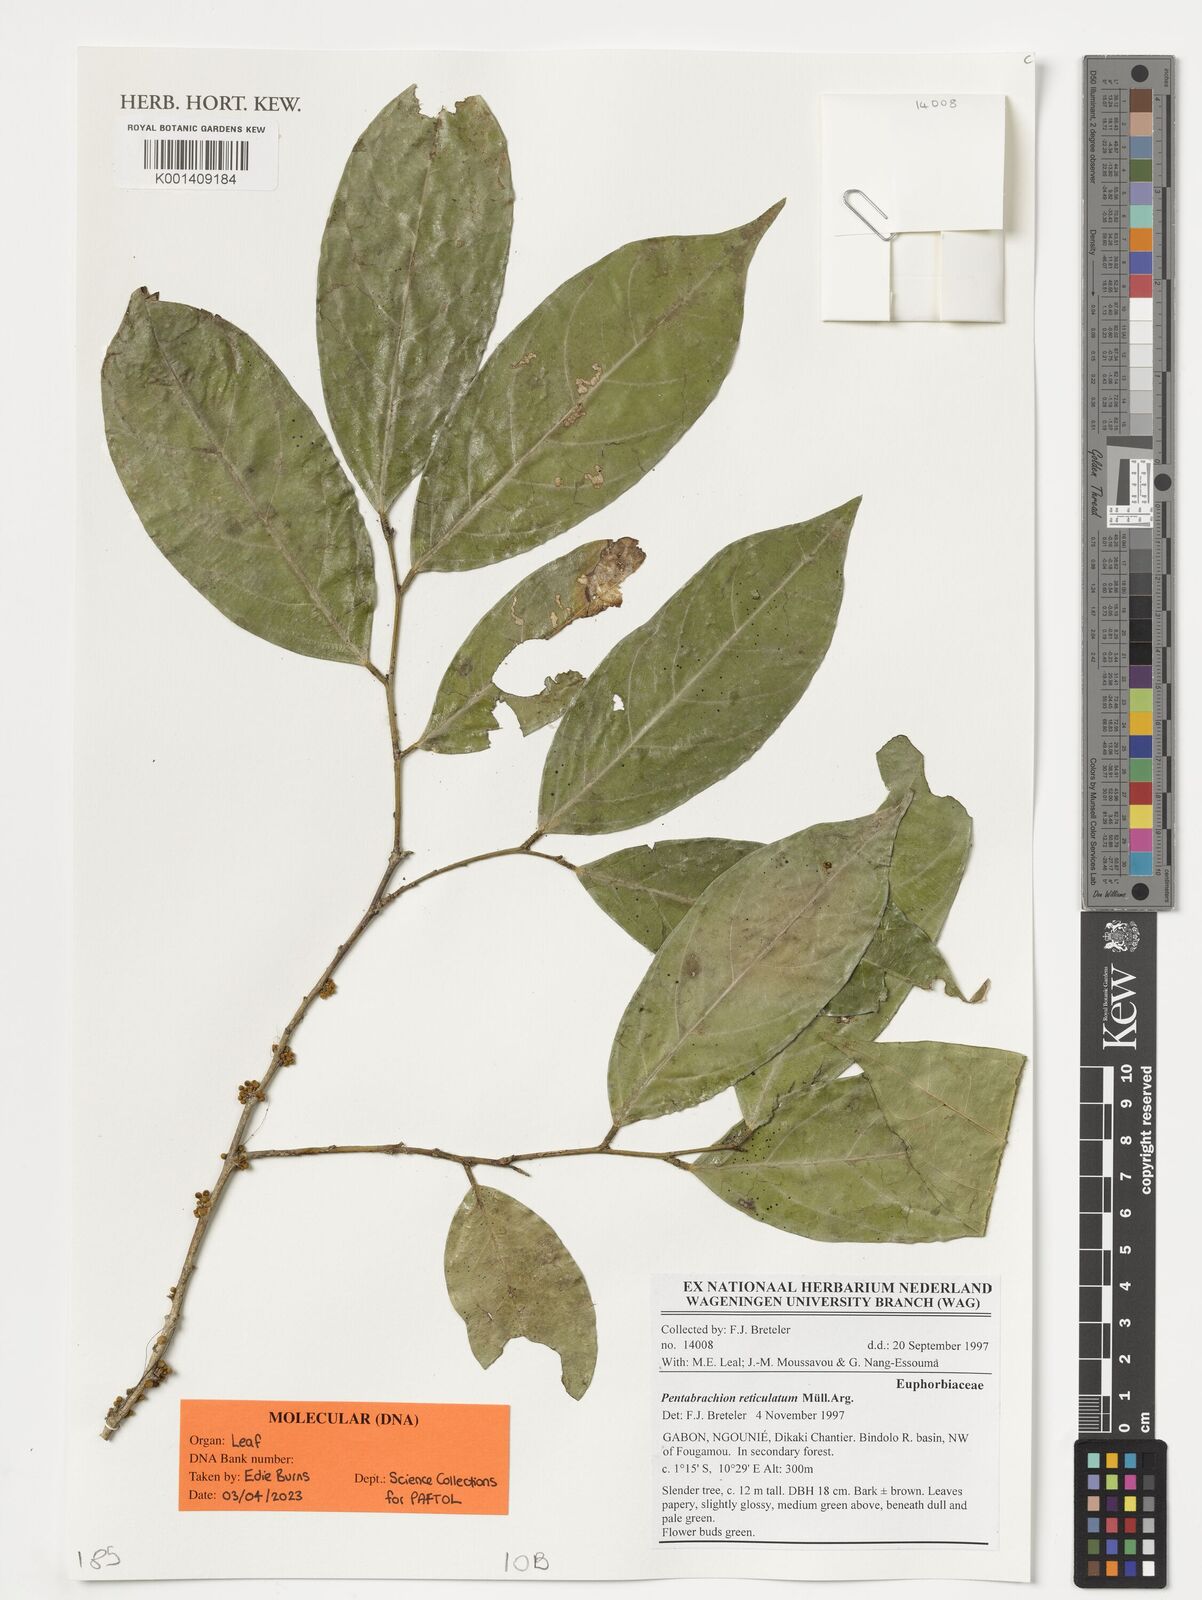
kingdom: Plantae
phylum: Tracheophyta
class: Magnoliopsida
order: Malpighiales
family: Phyllanthaceae
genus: Pentabrachion
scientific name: Pentabrachion reticulatum
